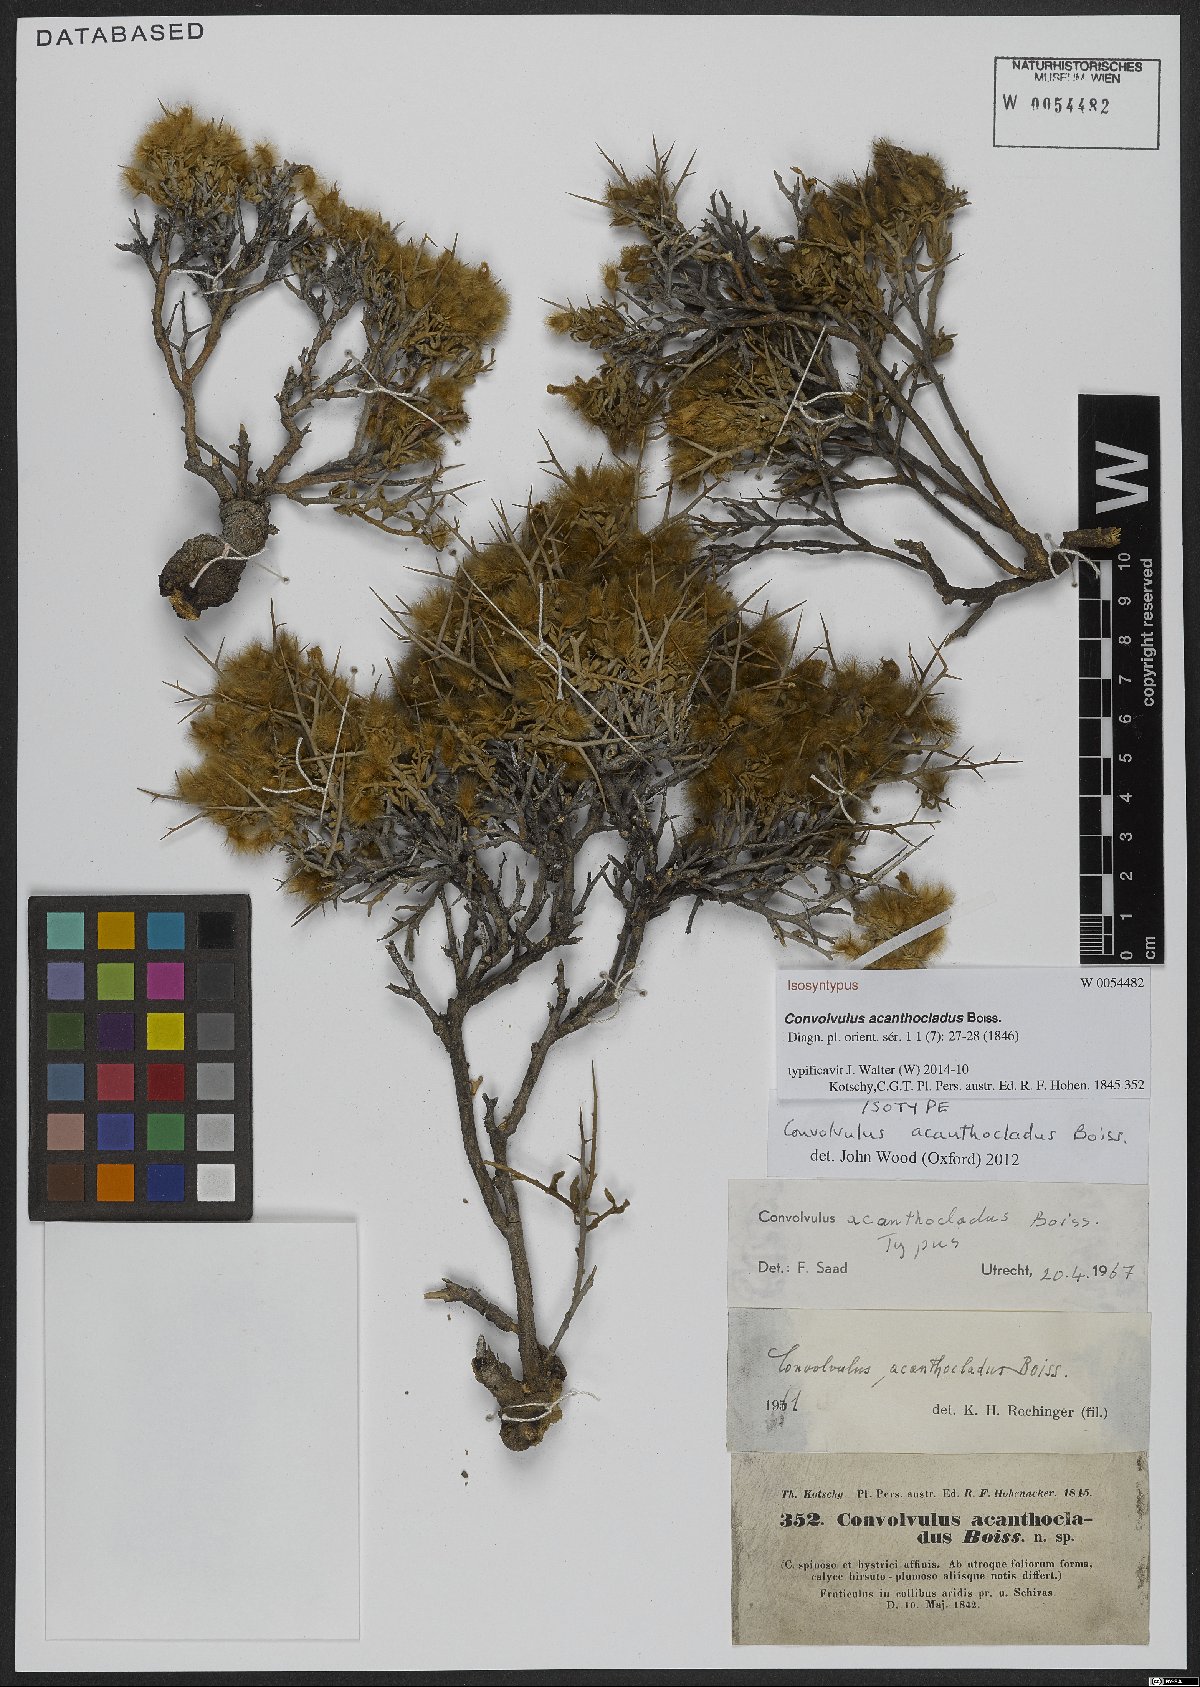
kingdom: Plantae
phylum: Tracheophyta
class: Magnoliopsida
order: Solanales
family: Convolvulaceae
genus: Convolvulus
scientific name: Convolvulus acanthocladus
